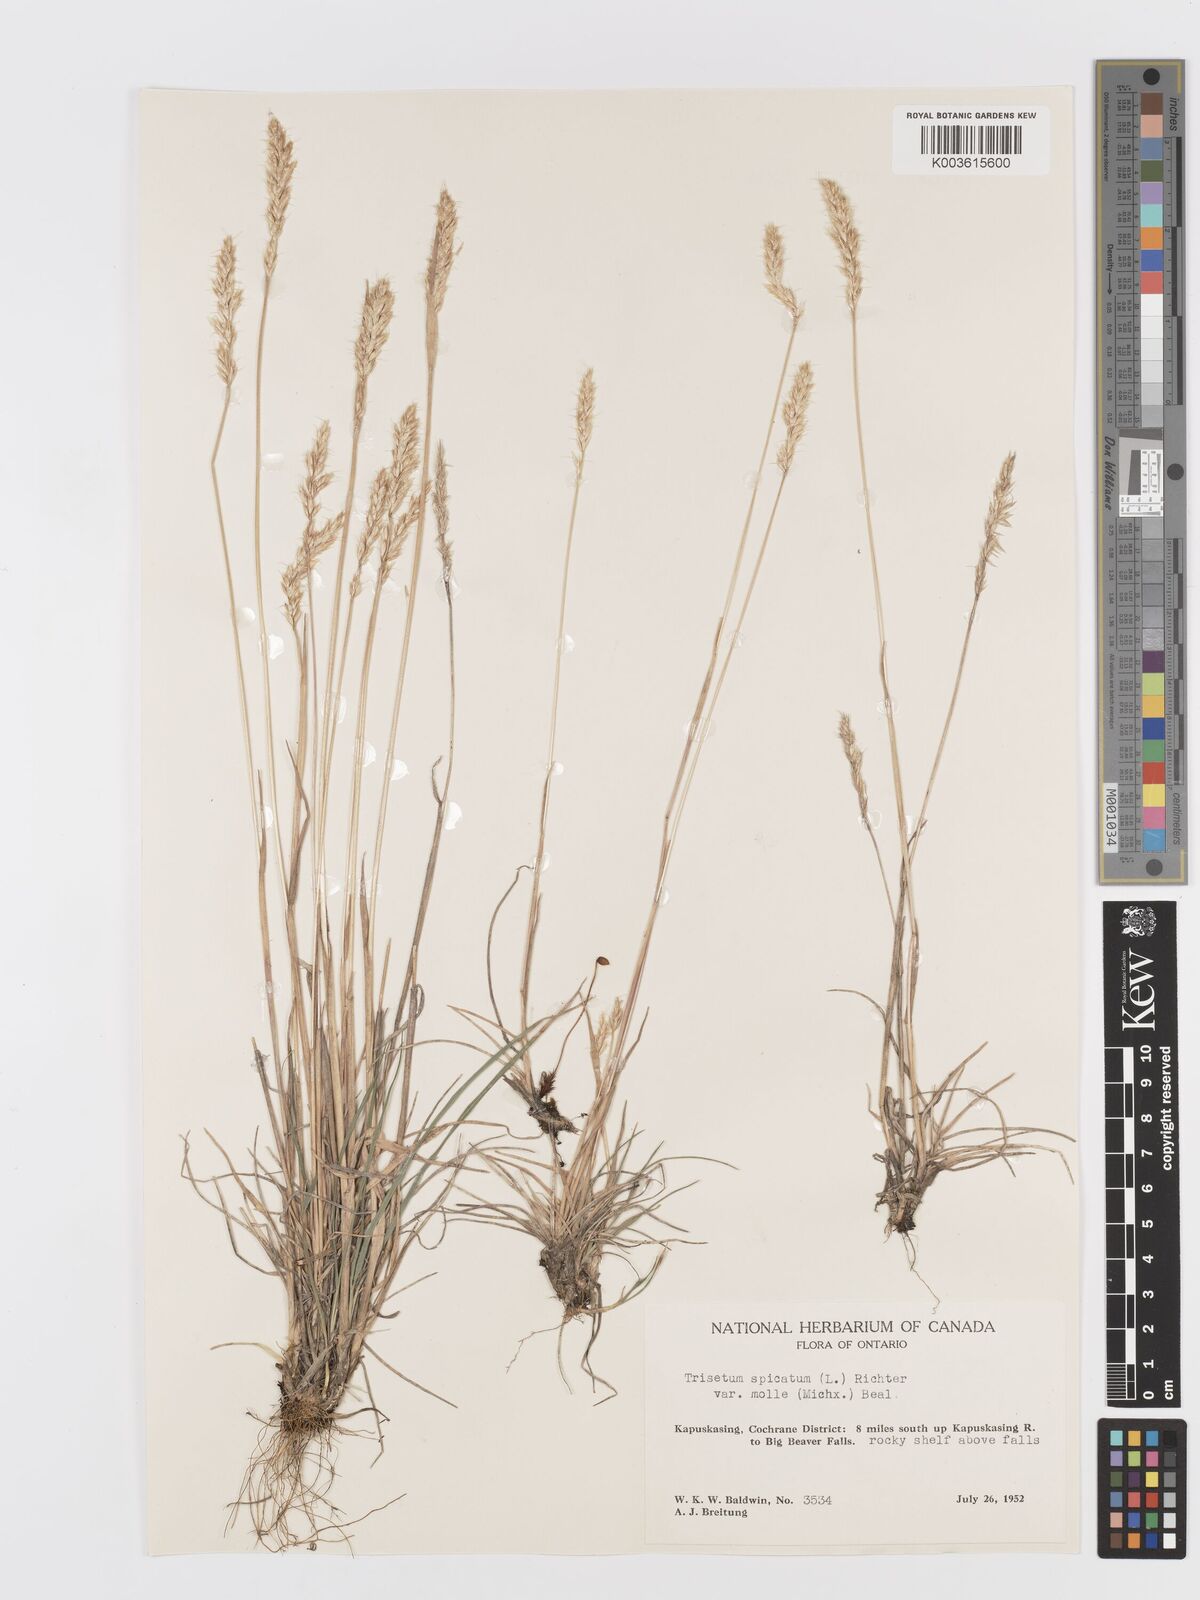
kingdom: Plantae
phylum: Tracheophyta
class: Liliopsida
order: Poales
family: Poaceae
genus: Koeleria
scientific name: Koeleria spicata
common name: Mountain trisetum
